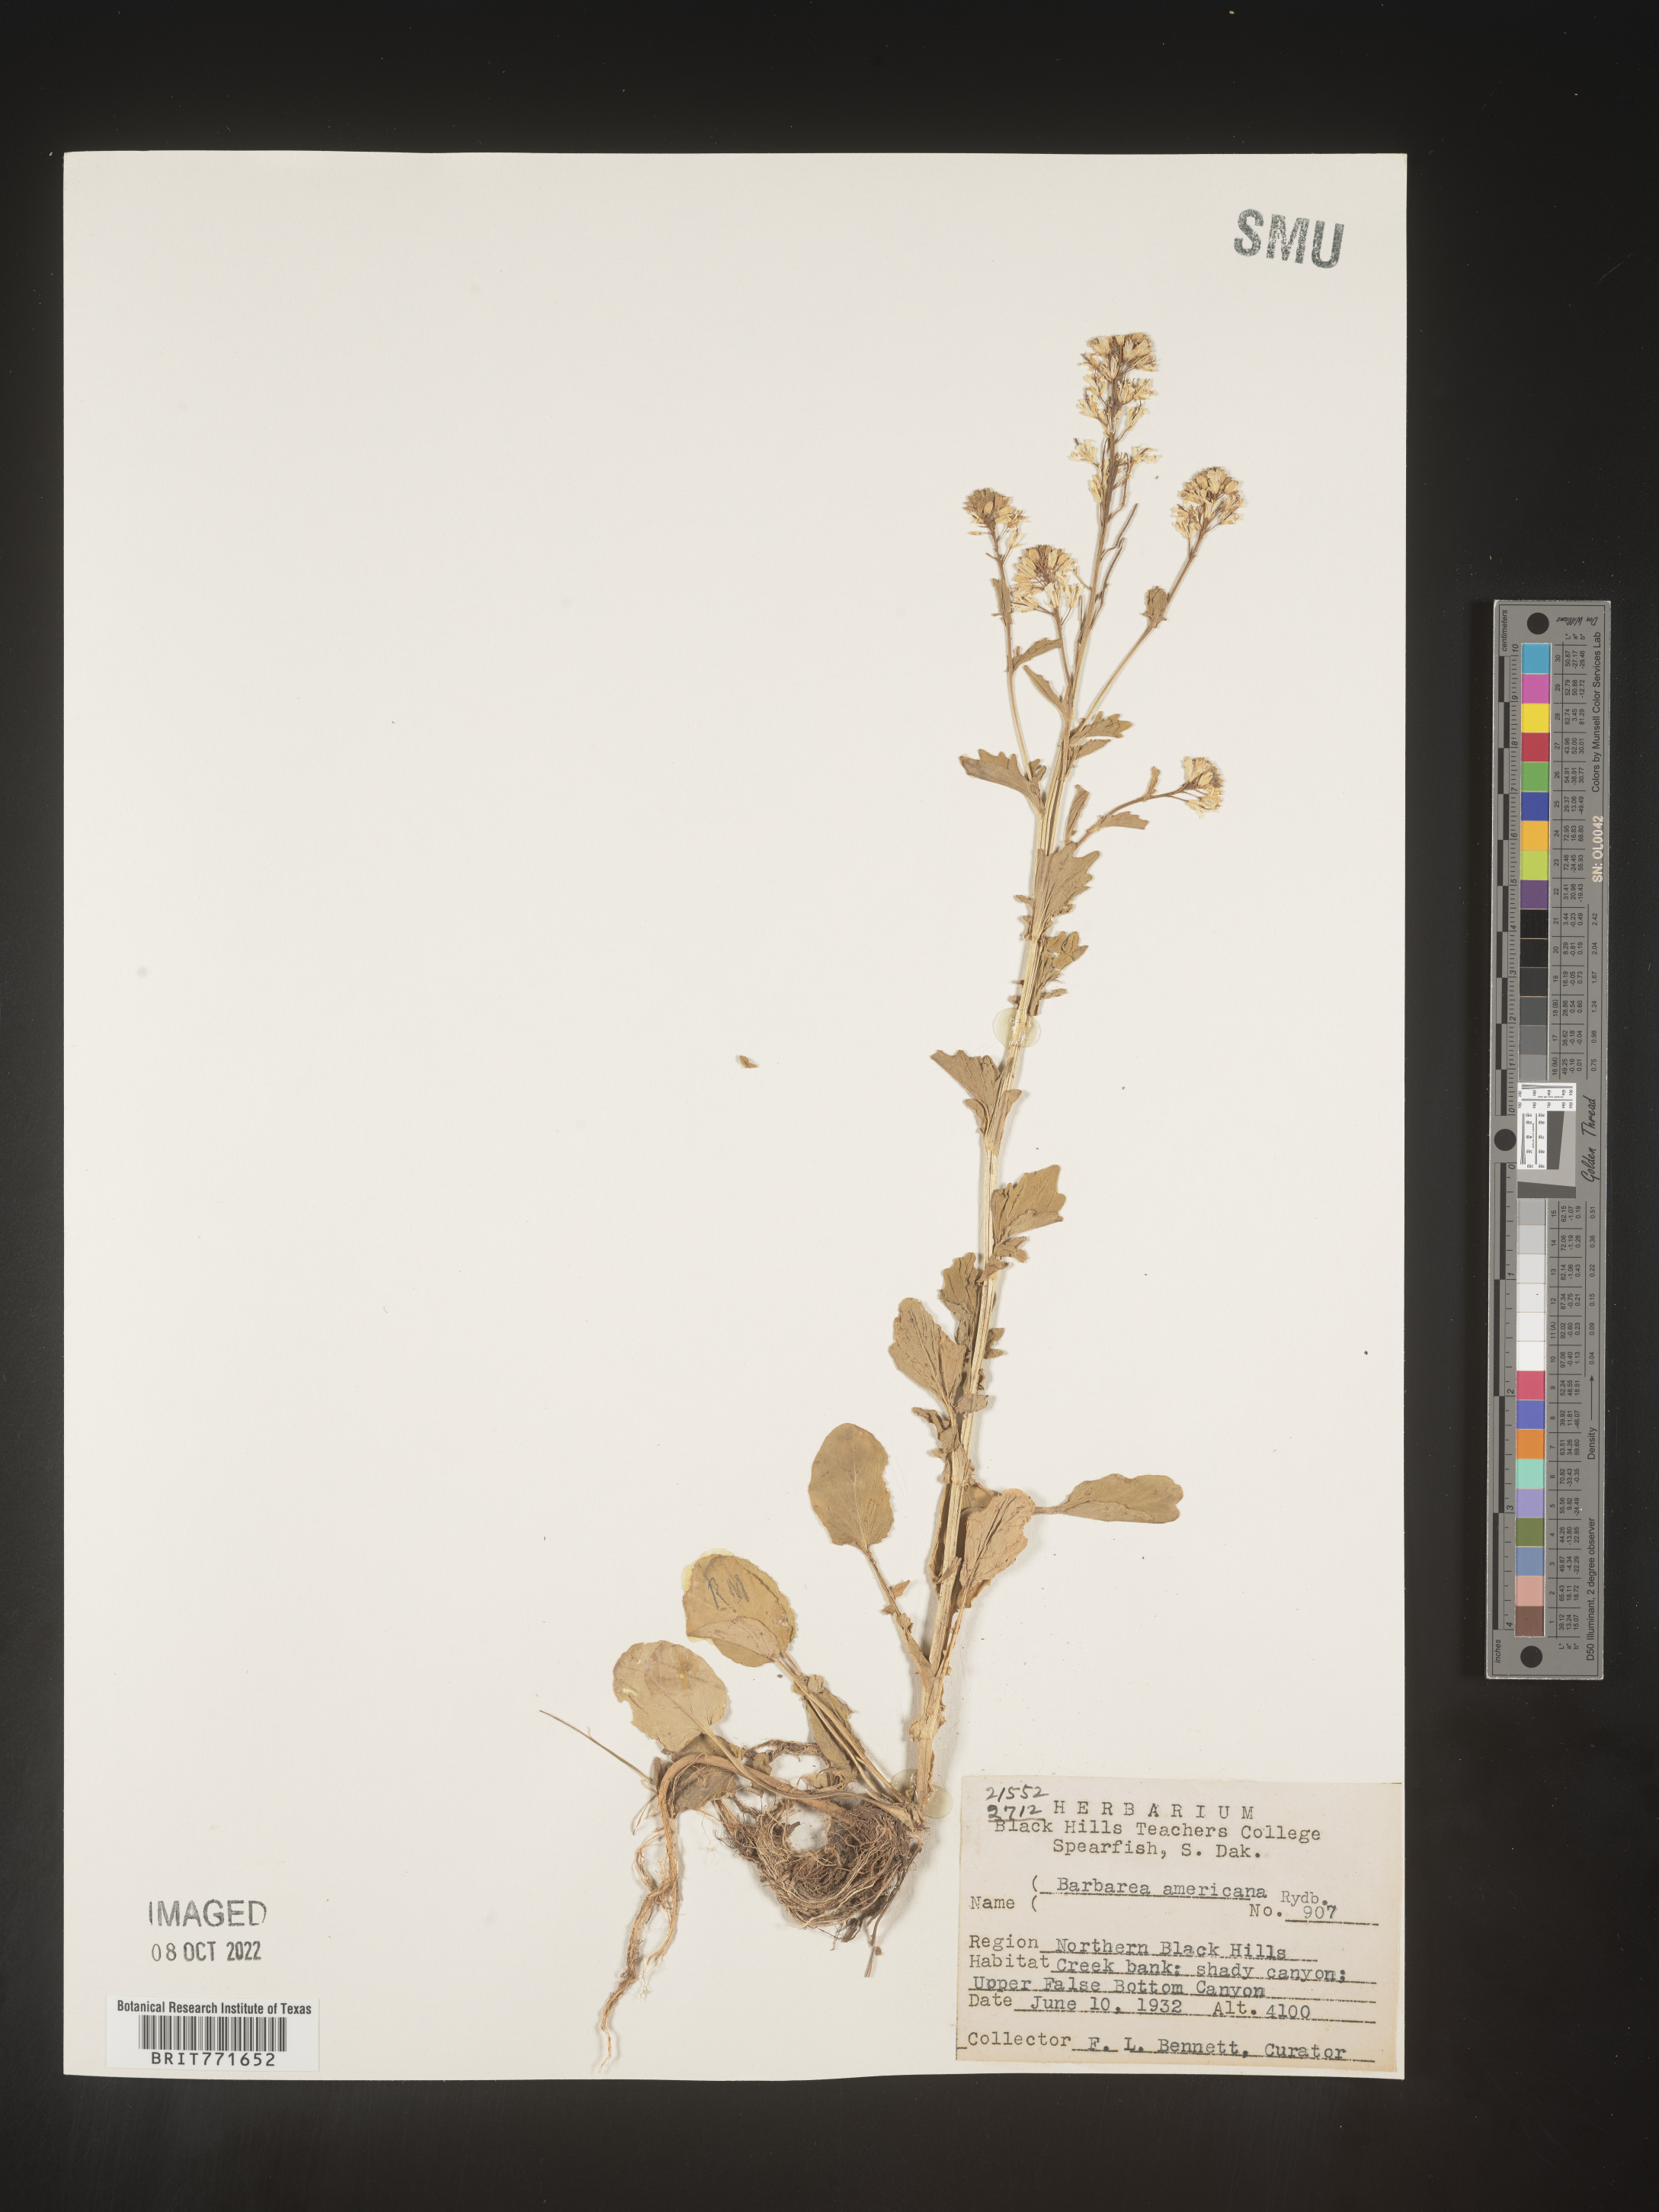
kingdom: Plantae
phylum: Tracheophyta
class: Magnoliopsida
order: Brassicales
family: Brassicaceae
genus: Barbarea
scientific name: Barbarea
